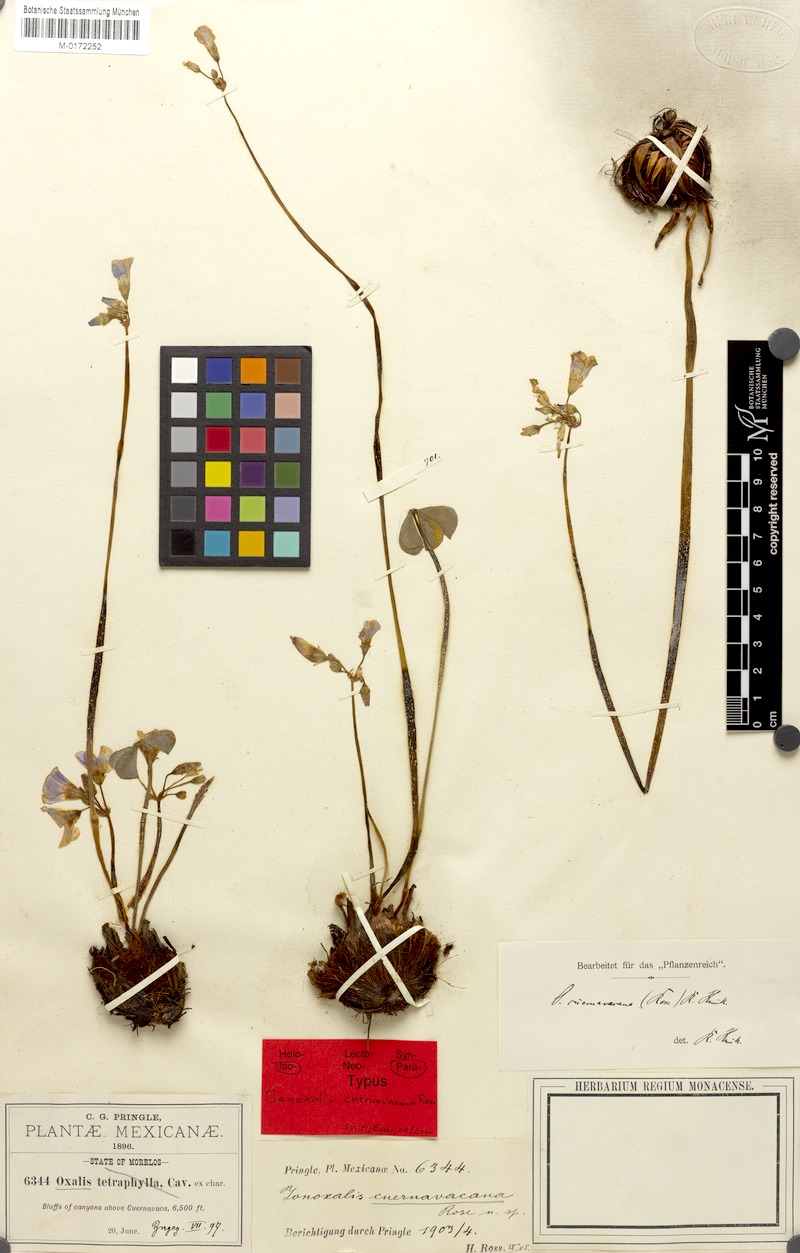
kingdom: Plantae
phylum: Tracheophyta
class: Magnoliopsida
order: Oxalidales
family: Oxalidaceae
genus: Oxalis
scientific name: Oxalis tetraphylla
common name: Four-leaved pink-sorrel
